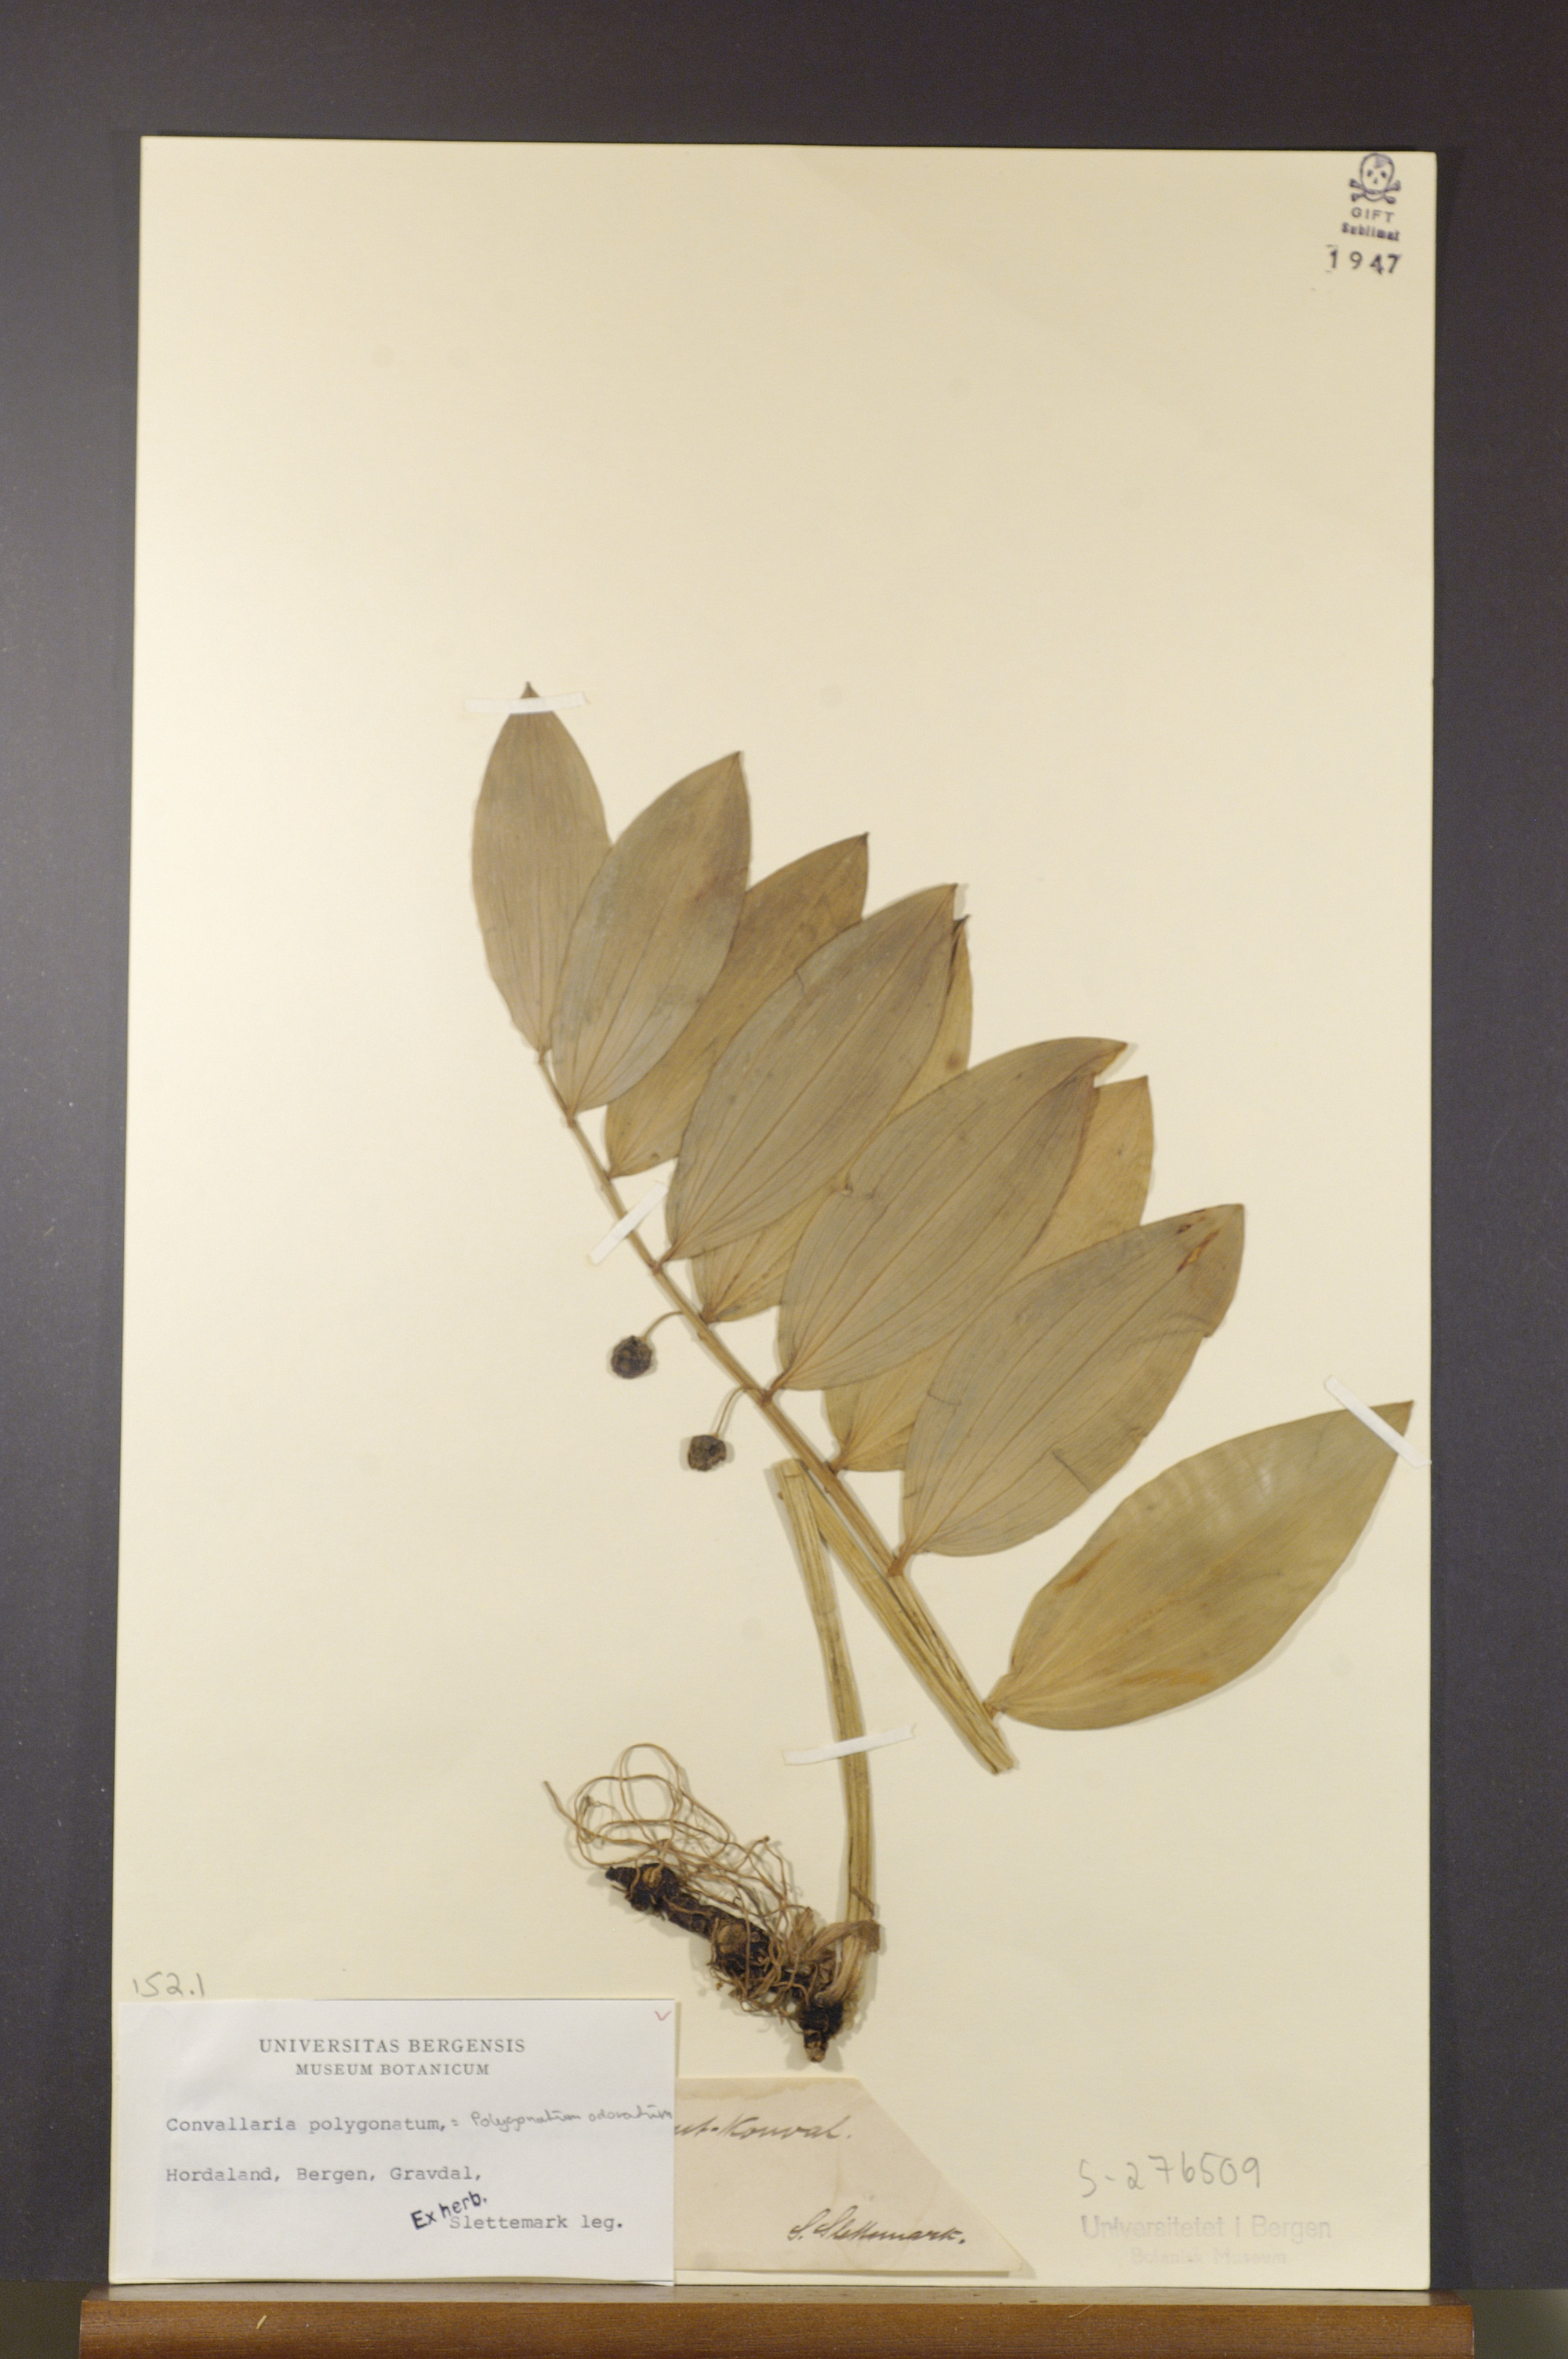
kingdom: Plantae
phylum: Tracheophyta
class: Liliopsida
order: Asparagales
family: Asparagaceae
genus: Polygonatum
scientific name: Polygonatum odoratum
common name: Angular solomon's-seal
